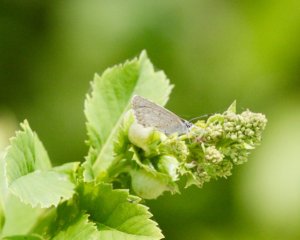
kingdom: Animalia
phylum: Arthropoda
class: Insecta
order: Lepidoptera
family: Lycaenidae
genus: Celastrina
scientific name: Celastrina
